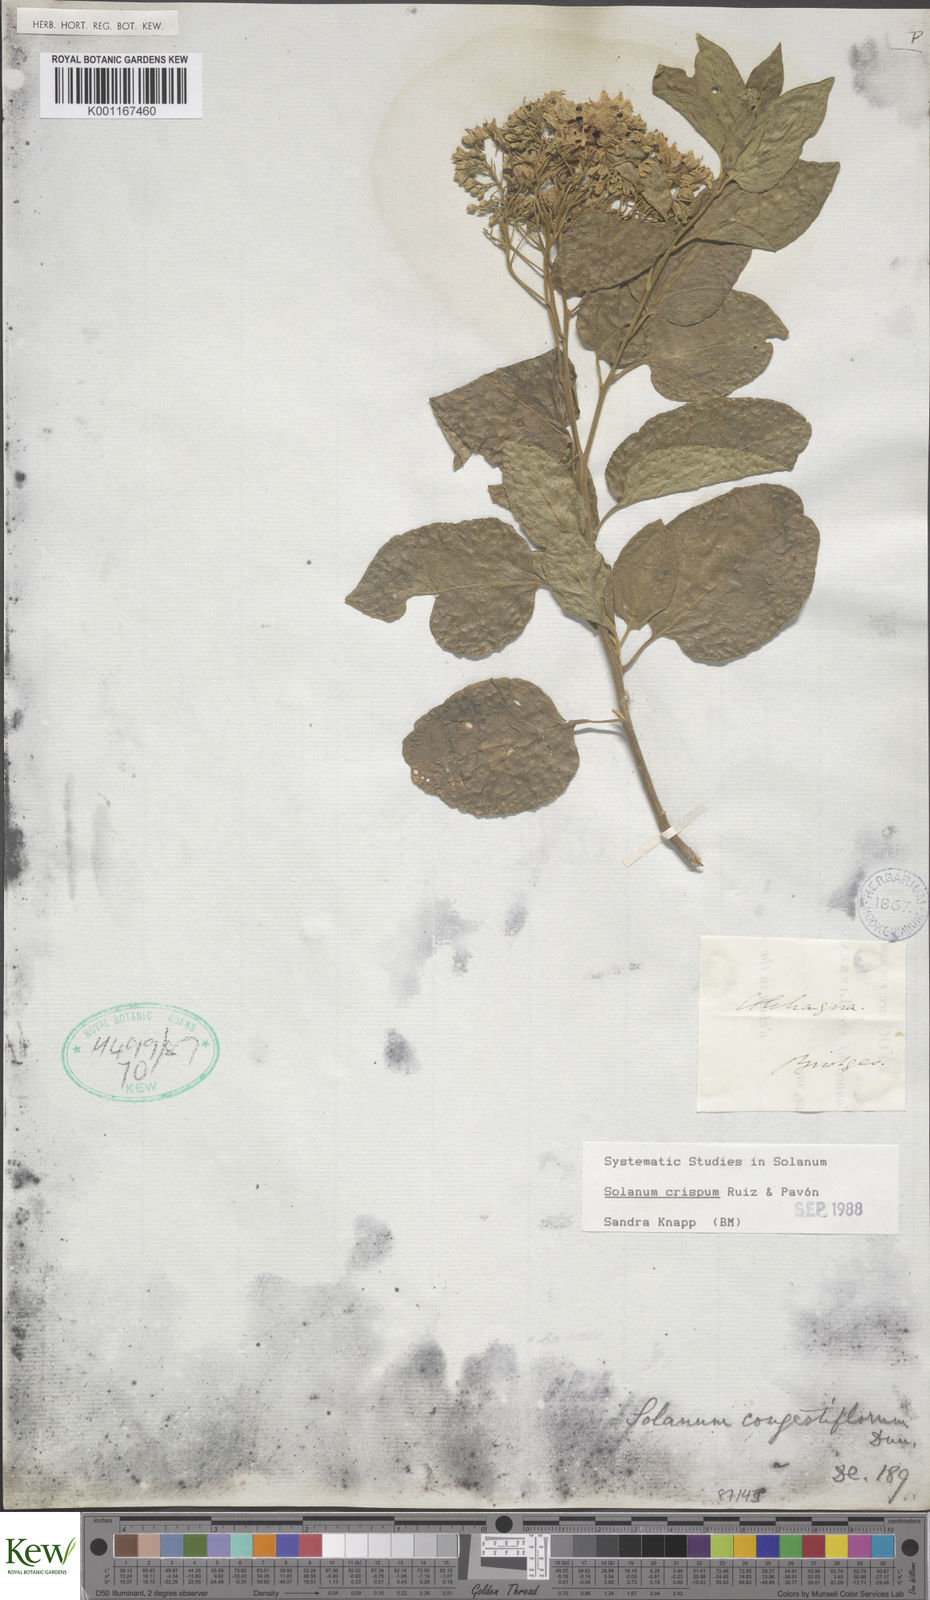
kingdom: Plantae
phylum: Tracheophyta
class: Magnoliopsida
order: Solanales
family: Solanaceae
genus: Solanum
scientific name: Solanum crispum
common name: Chilean nightshade
